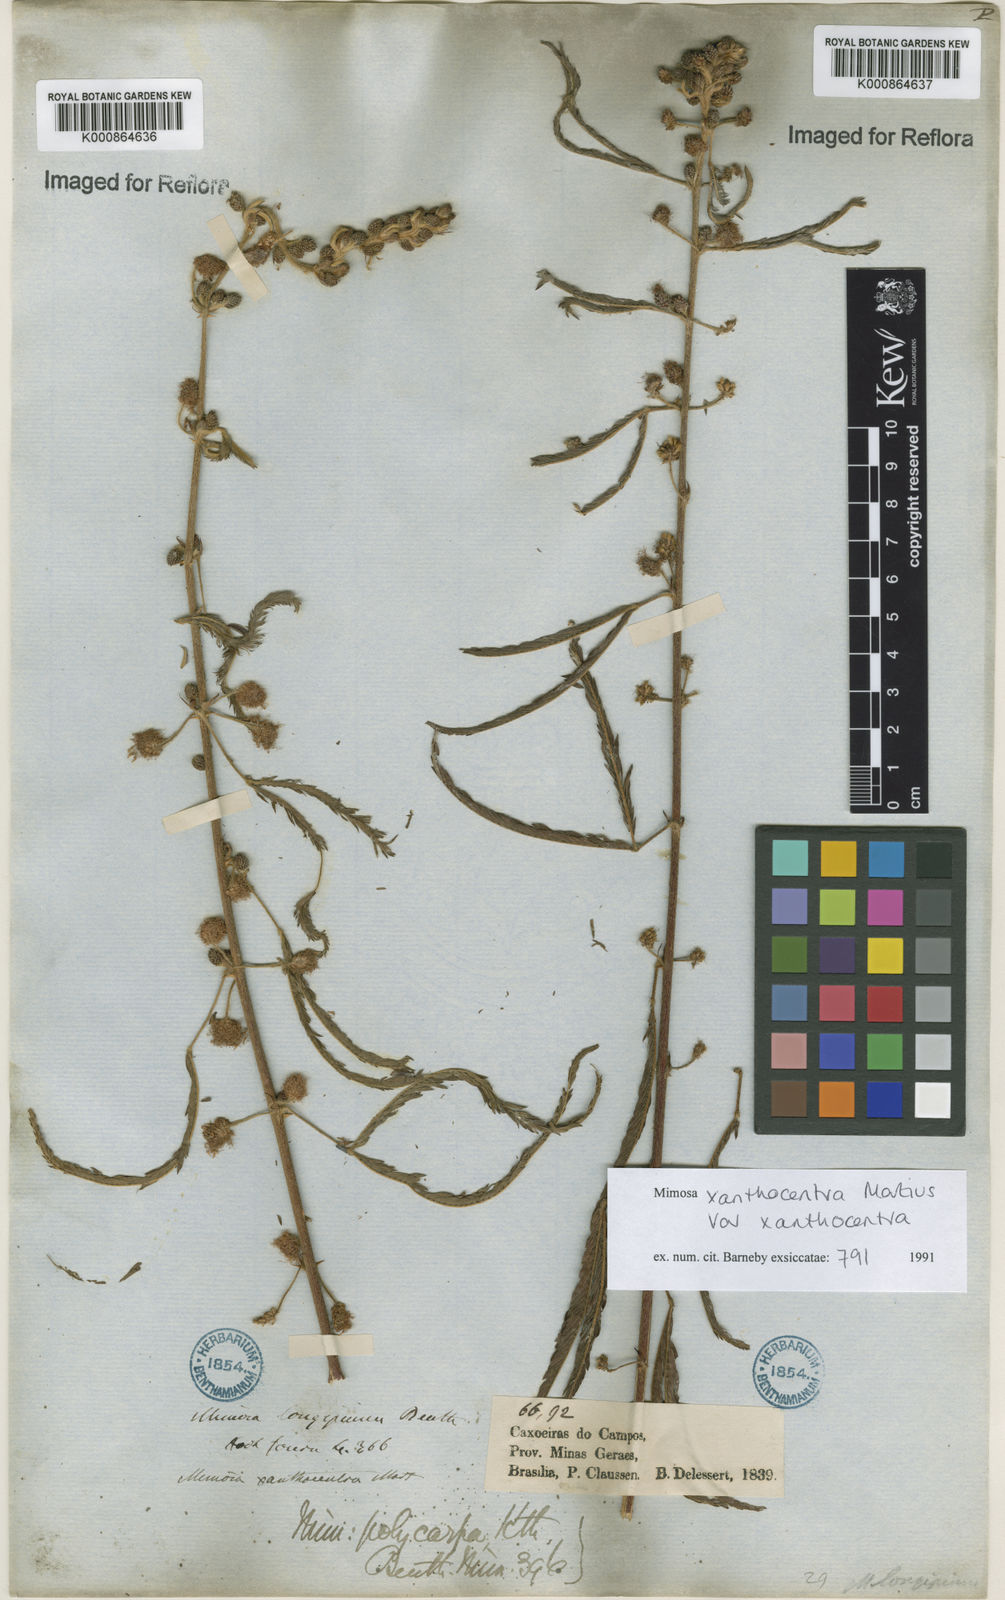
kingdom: Plantae
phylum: Tracheophyta
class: Magnoliopsida
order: Fabales
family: Fabaceae
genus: Mimosa
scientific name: Mimosa xanthocentra
